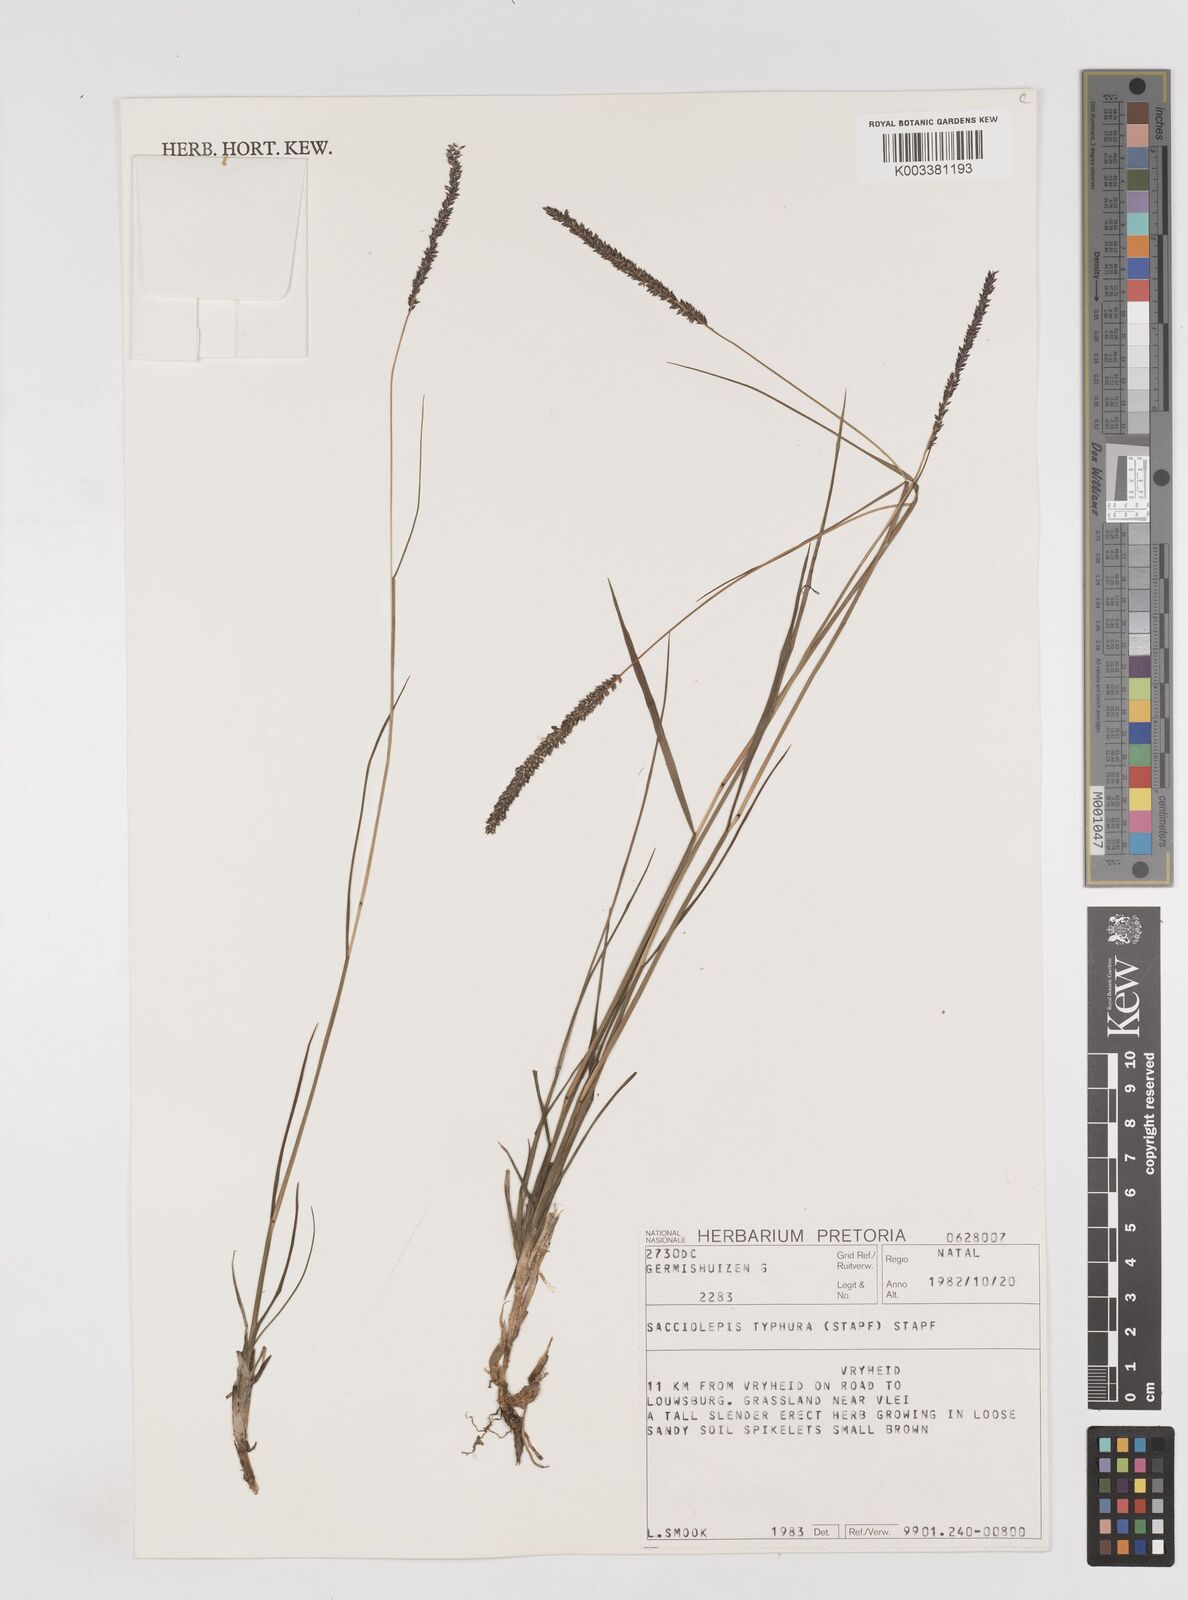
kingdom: Plantae
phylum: Tracheophyta
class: Liliopsida
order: Poales
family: Poaceae
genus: Sacciolepis
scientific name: Sacciolepis chevalieri
